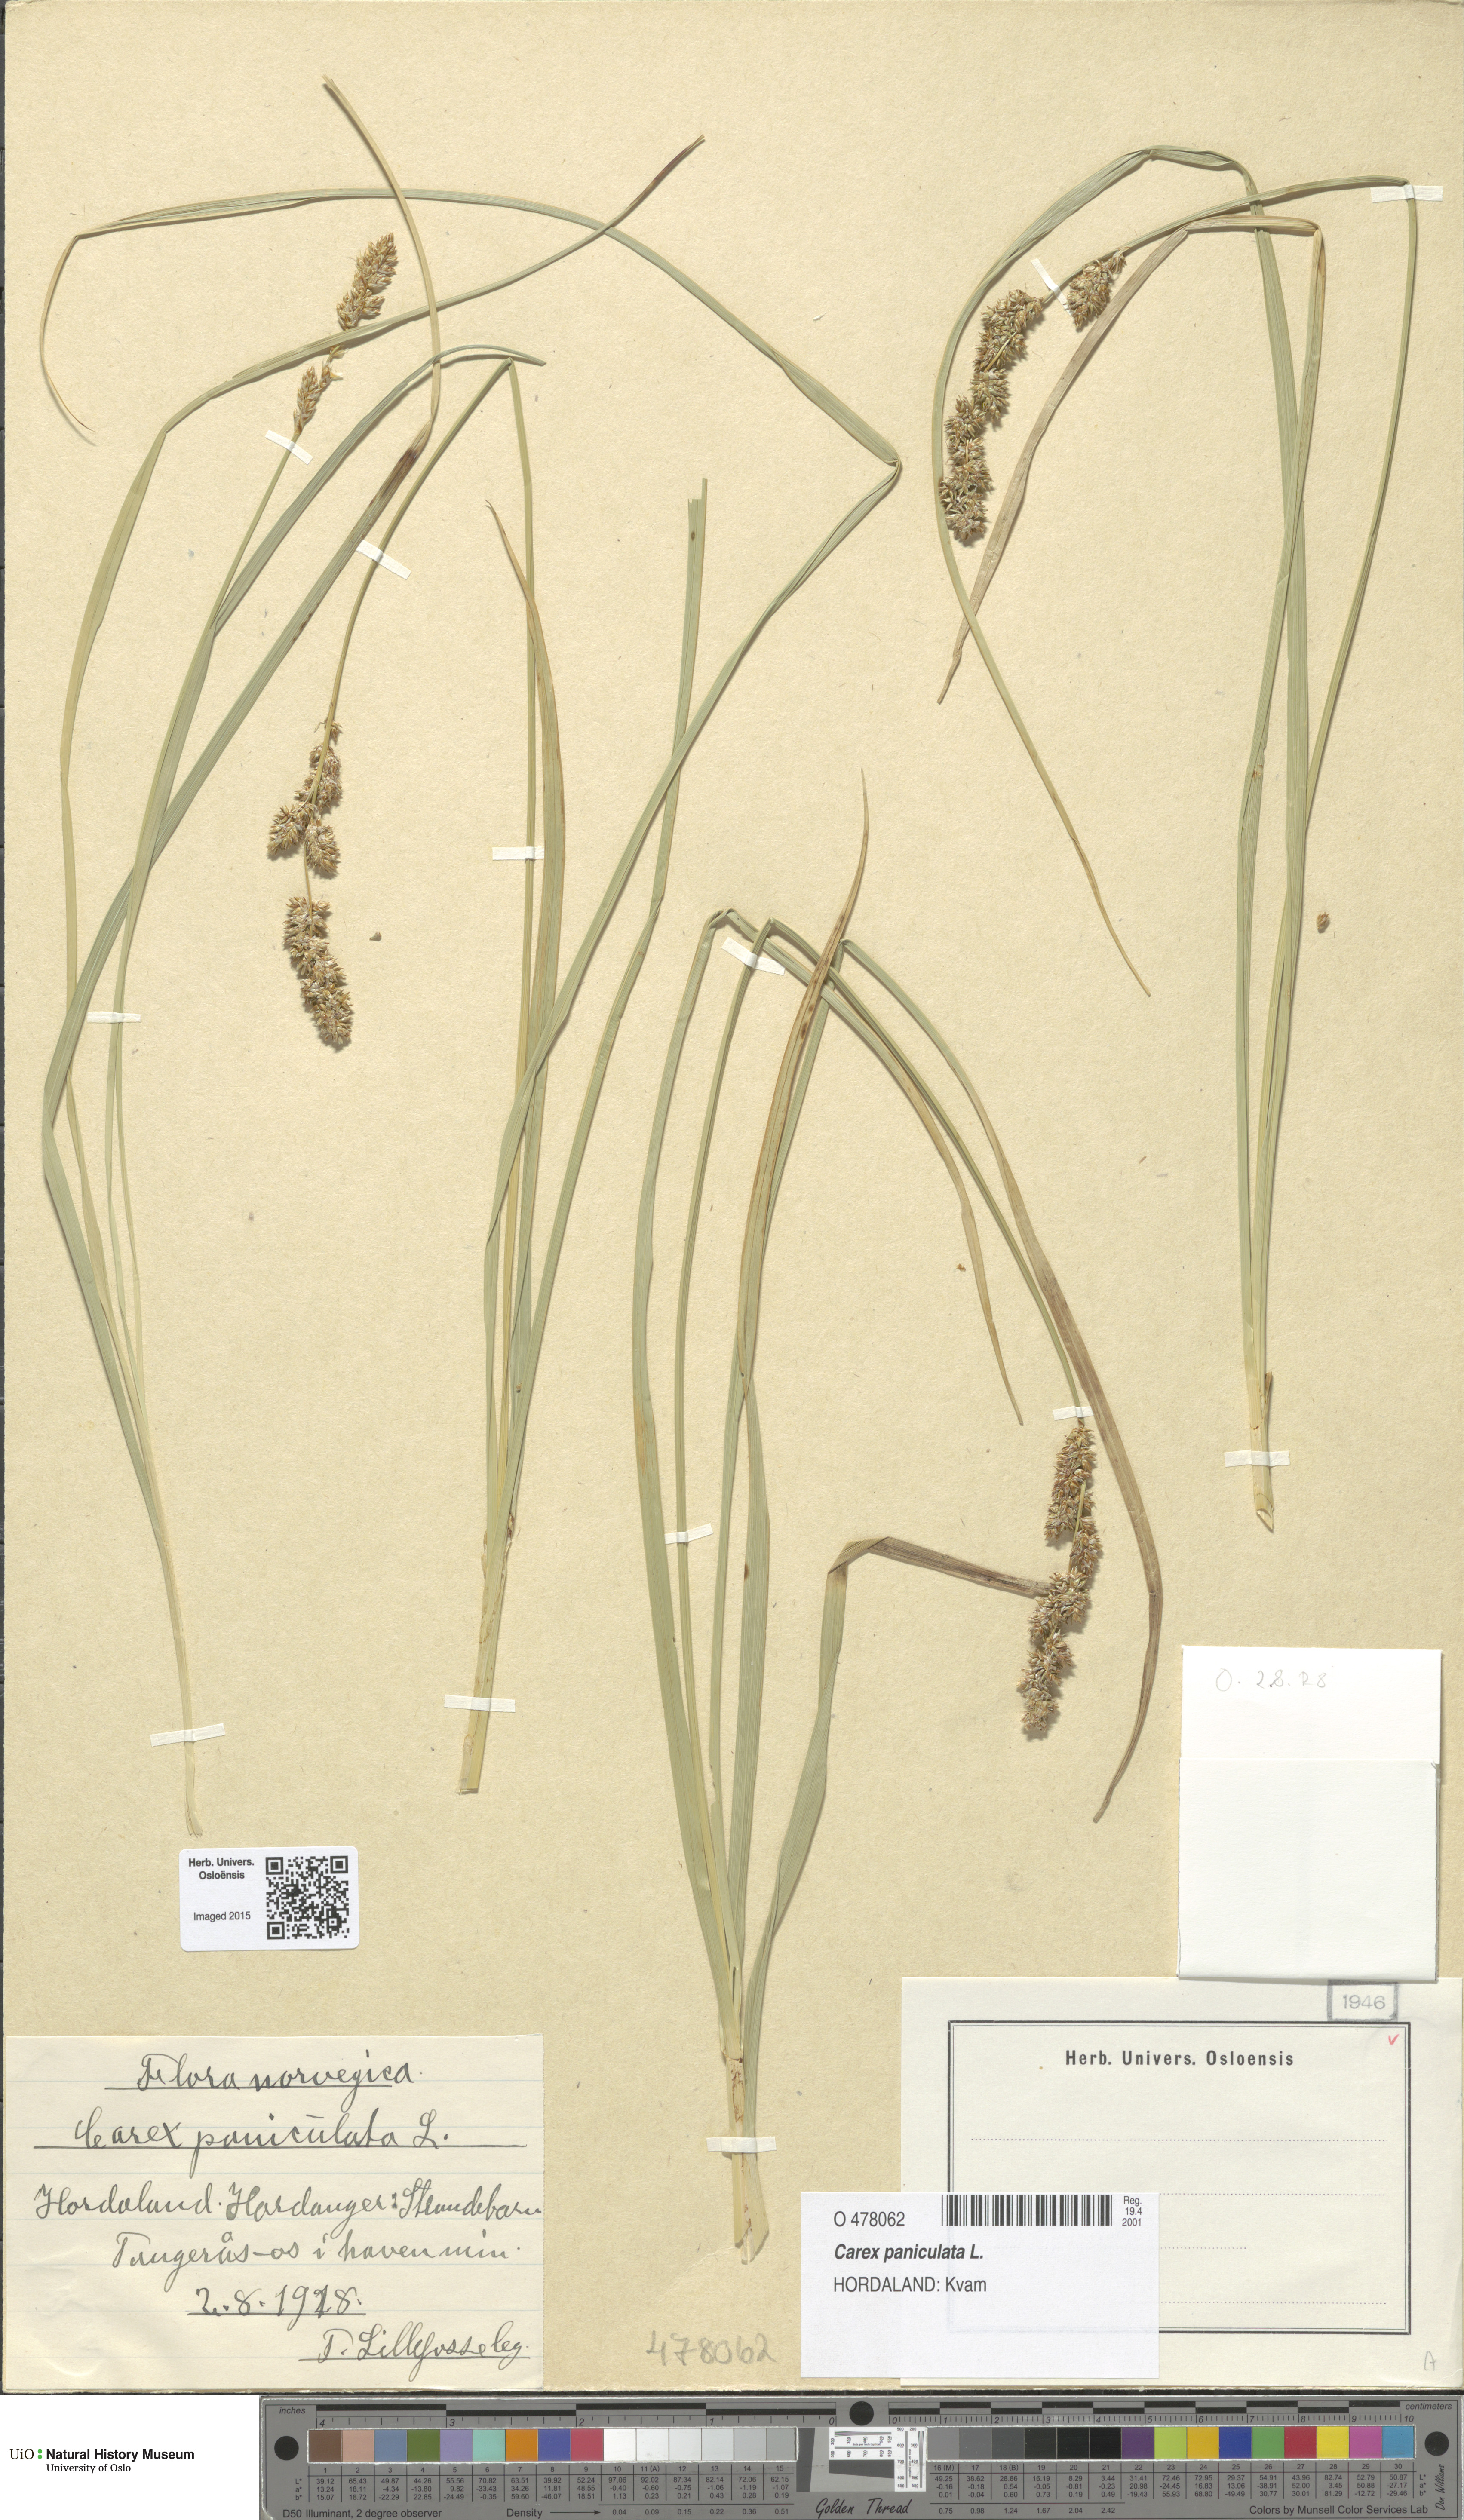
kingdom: Plantae
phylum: Tracheophyta
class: Liliopsida
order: Poales
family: Cyperaceae
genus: Carex
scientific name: Carex paniculata
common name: Greater tussock-sedge
